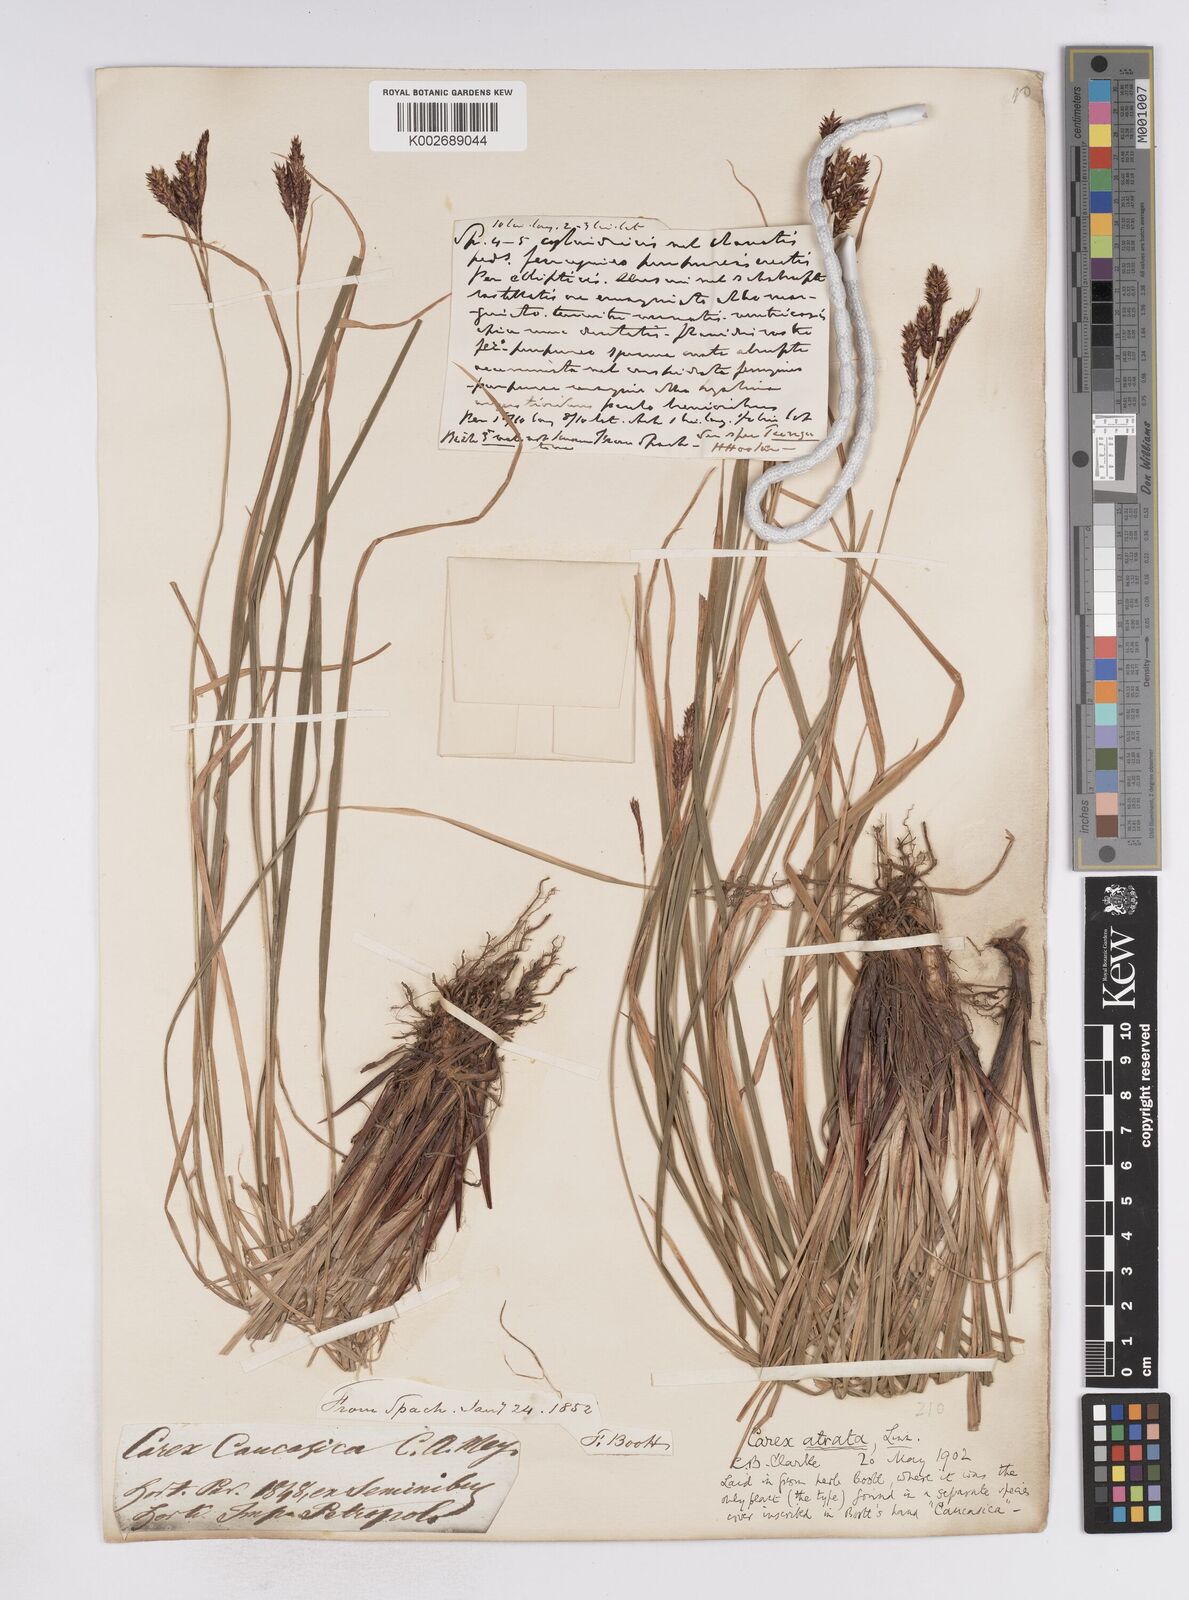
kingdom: Plantae
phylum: Tracheophyta
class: Liliopsida
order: Poales
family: Cyperaceae
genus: Carex
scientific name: Carex atrata
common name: Black alpine sedge
